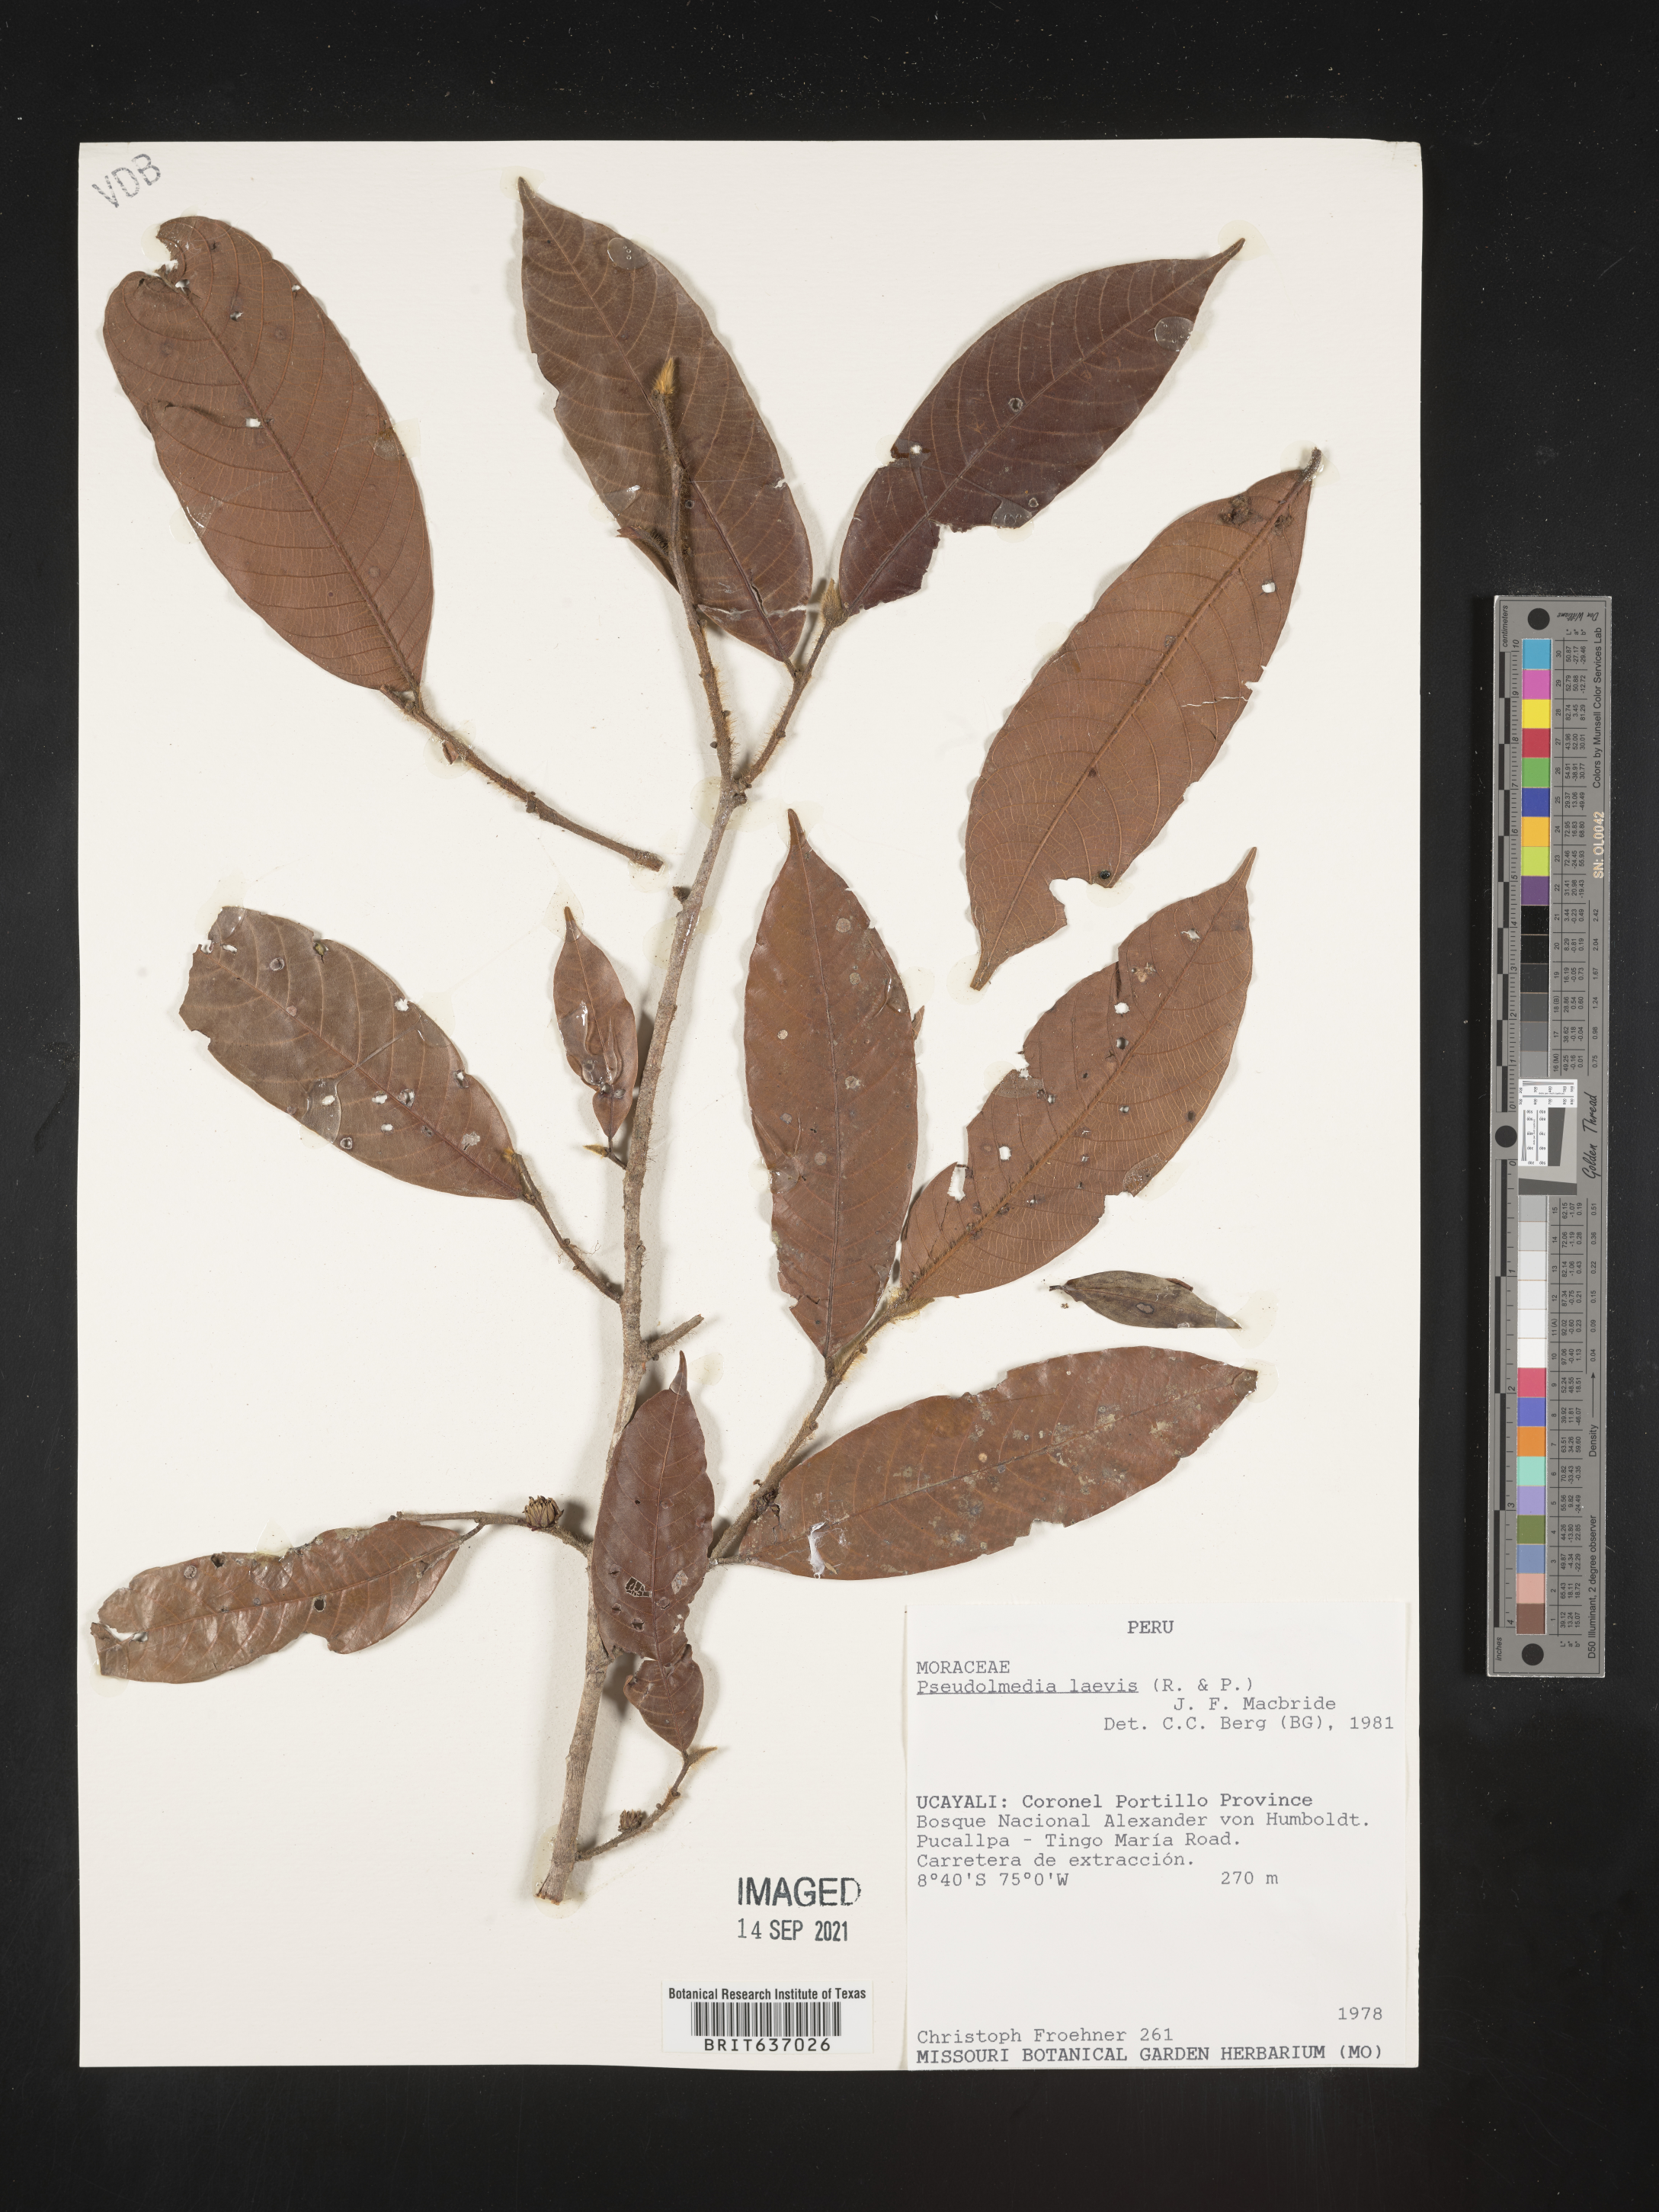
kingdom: Plantae
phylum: Tracheophyta
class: Magnoliopsida
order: Rosales
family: Moraceae
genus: Pseudolmedia
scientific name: Pseudolmedia
